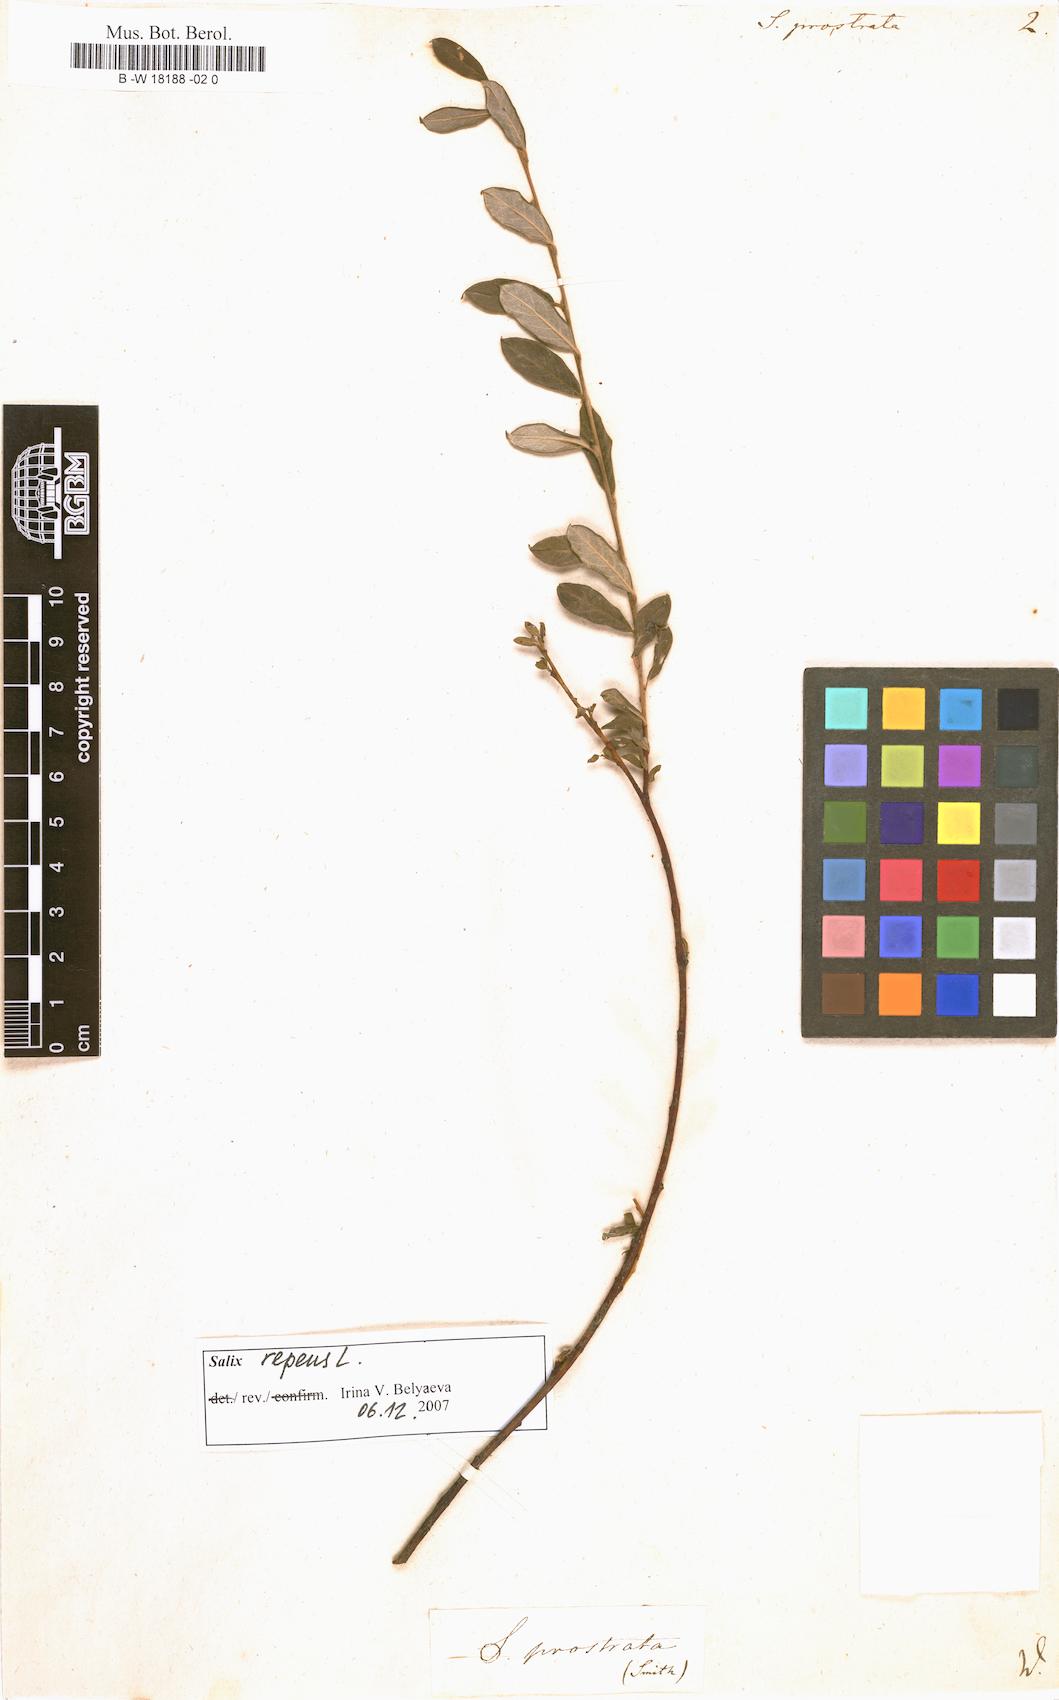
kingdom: Plantae
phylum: Tracheophyta
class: Magnoliopsida
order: Malpighiales
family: Salicaceae
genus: Salix
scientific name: Salix
